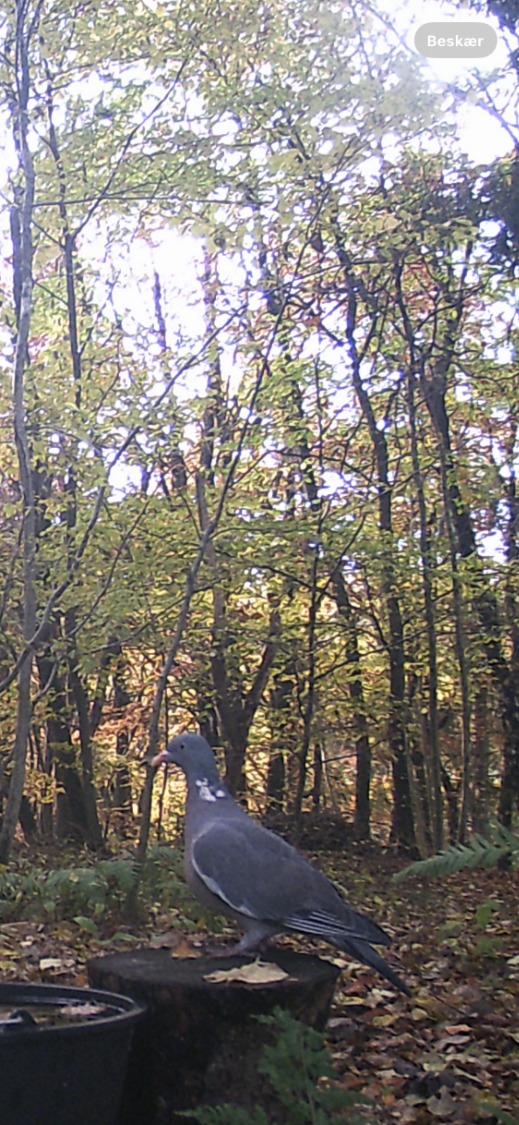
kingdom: Animalia
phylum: Chordata
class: Aves
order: Columbiformes
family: Columbidae
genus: Columba
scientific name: Columba palumbus
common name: Ringdue
